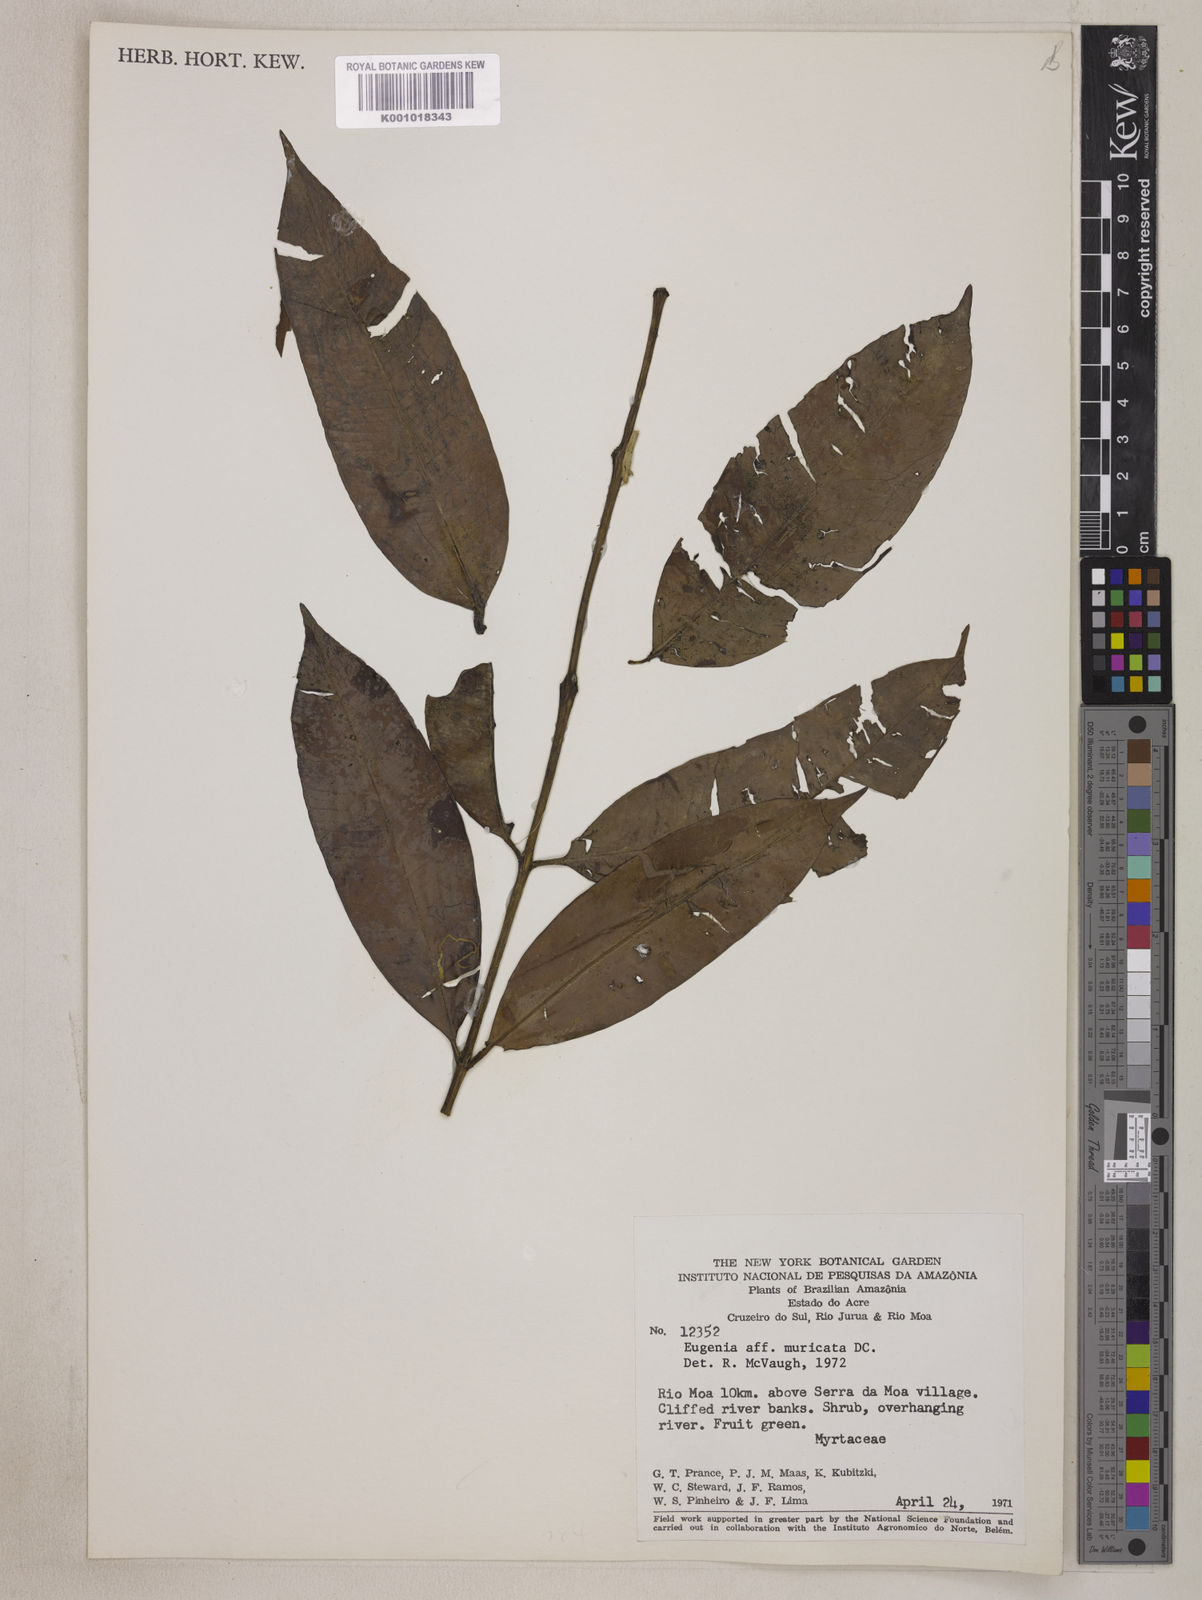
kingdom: Plantae
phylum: Tracheophyta
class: Magnoliopsida
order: Myrtales
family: Myrtaceae
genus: Eugenia
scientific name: Eugenia muricata
